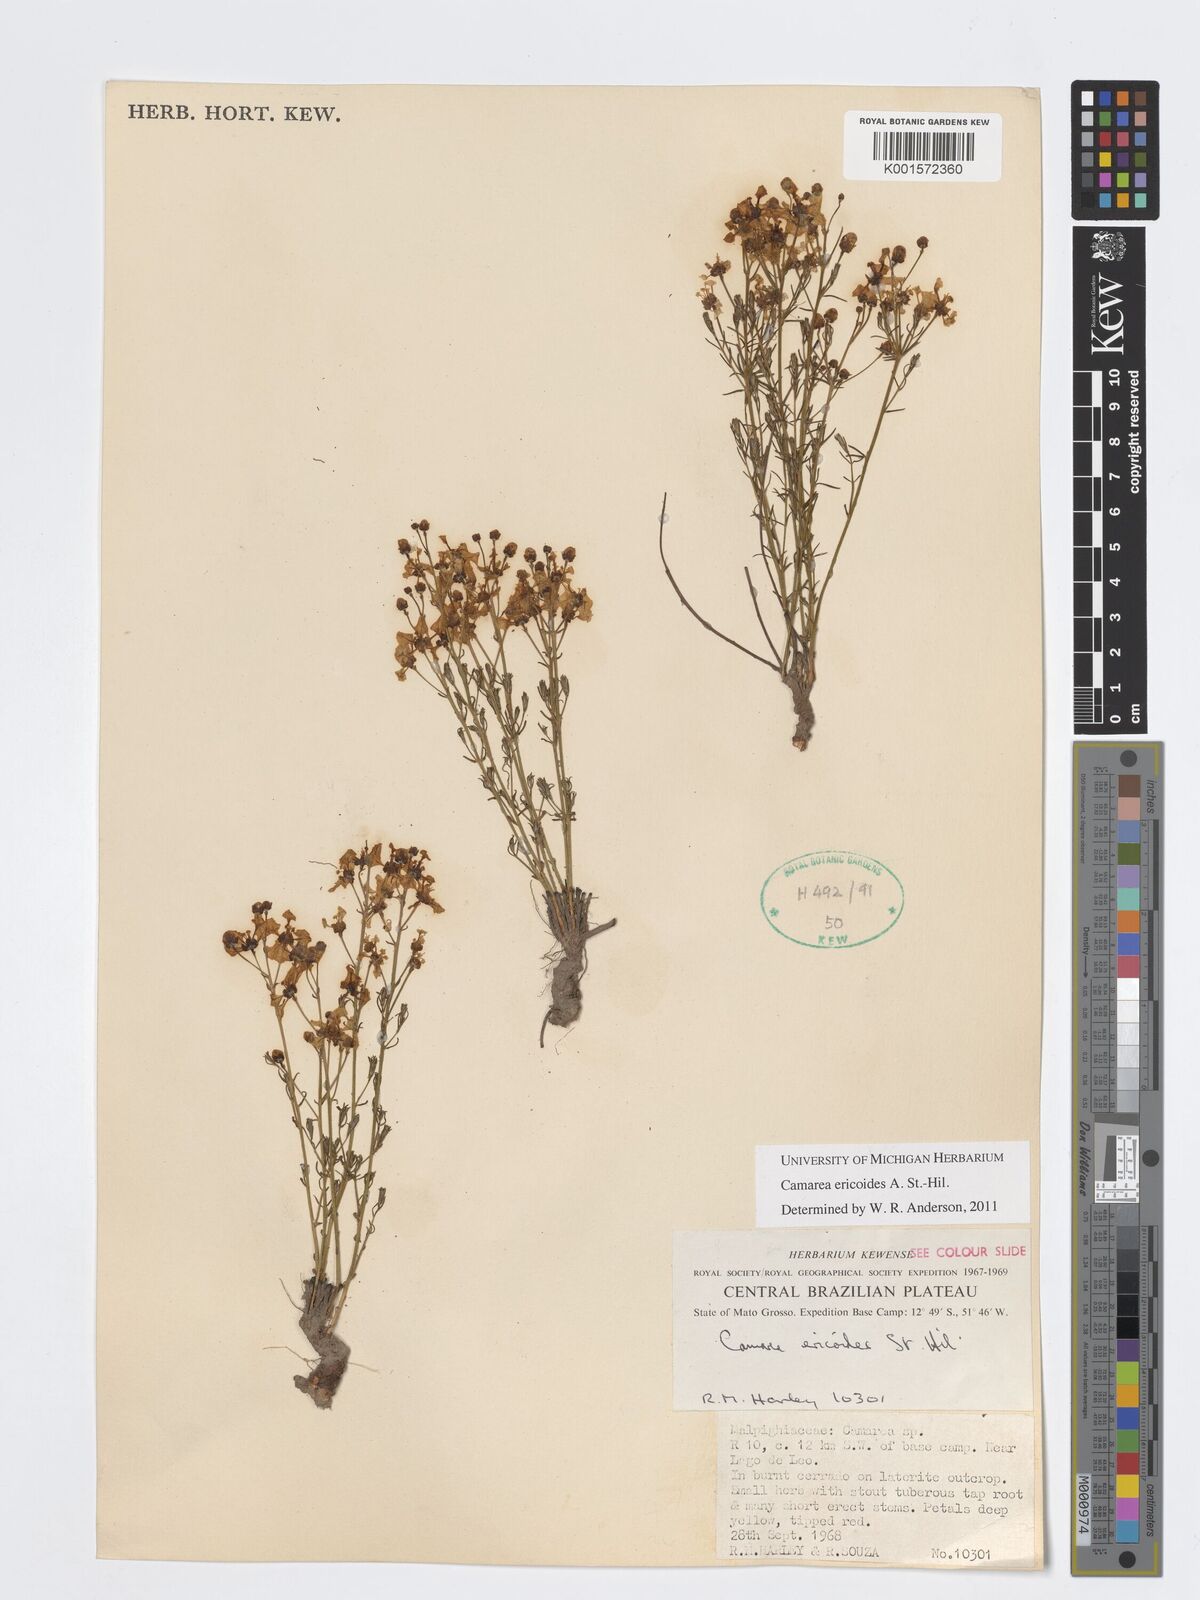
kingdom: Plantae
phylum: Tracheophyta
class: Magnoliopsida
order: Malpighiales
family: Malpighiaceae
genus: Camarea
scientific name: Camarea ericoides
